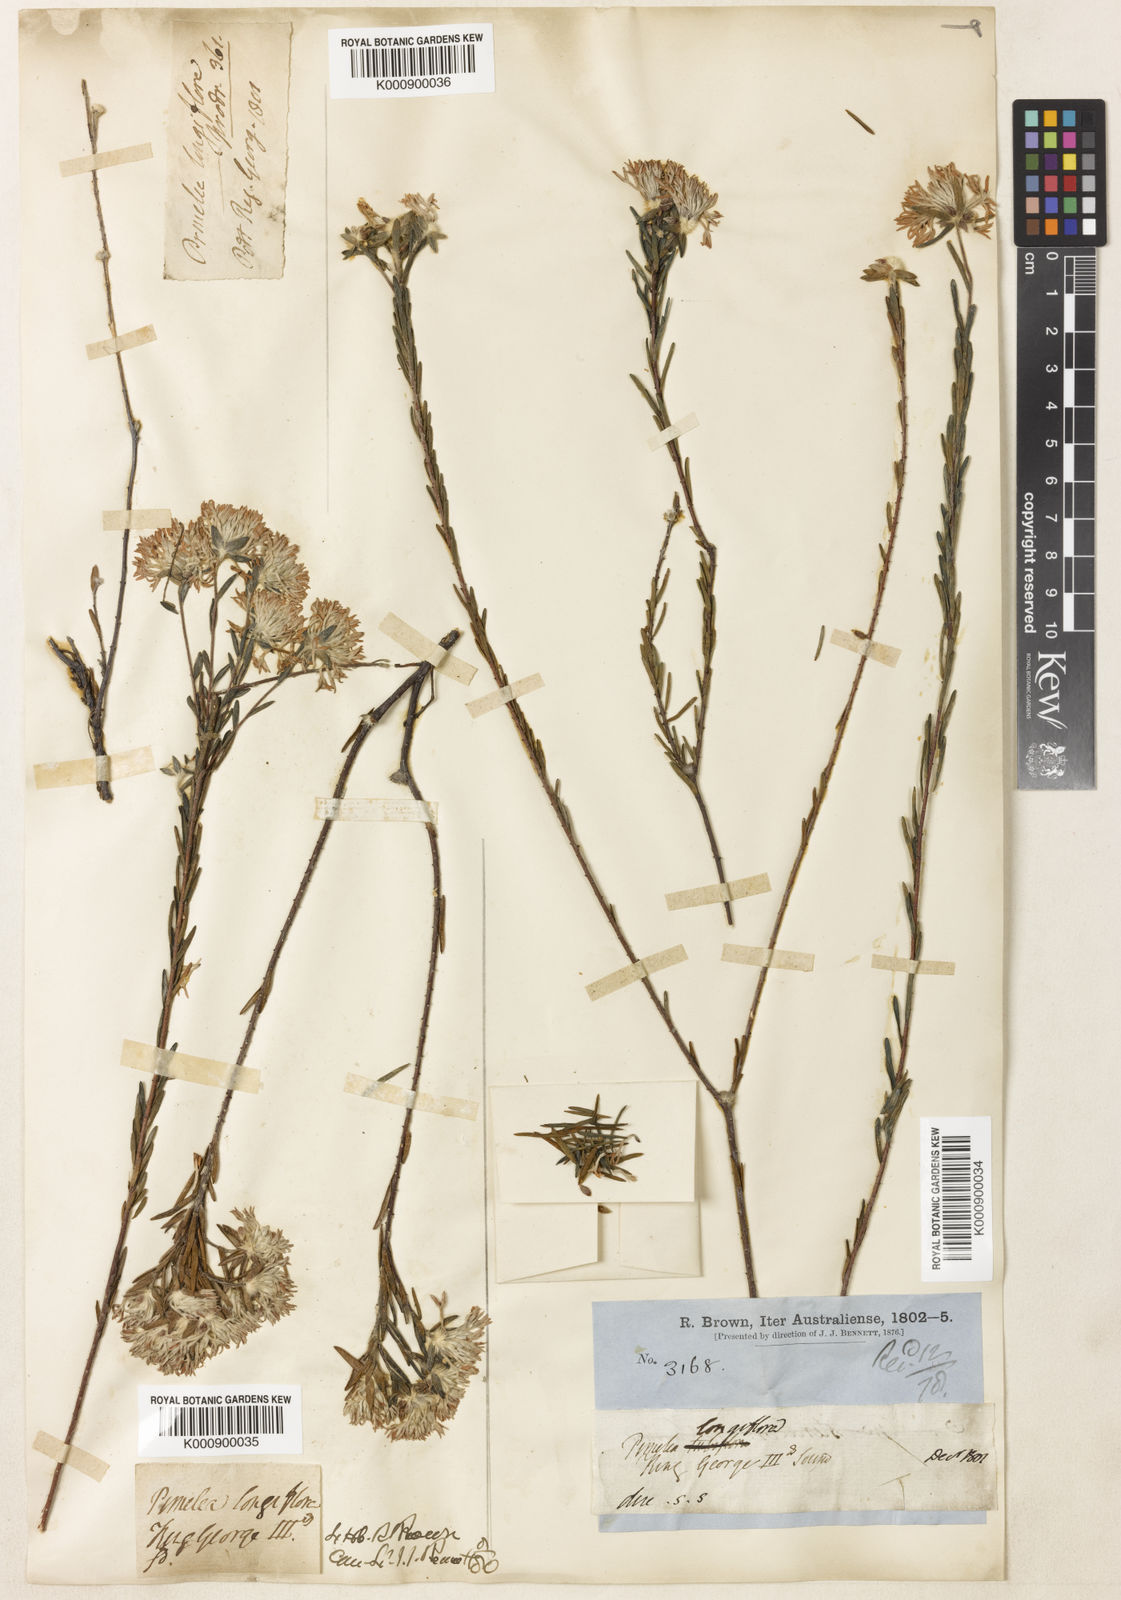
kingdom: Plantae
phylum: Tracheophyta
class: Magnoliopsida
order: Malvales
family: Thymelaeaceae
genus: Pimelea
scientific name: Pimelea longiflora
